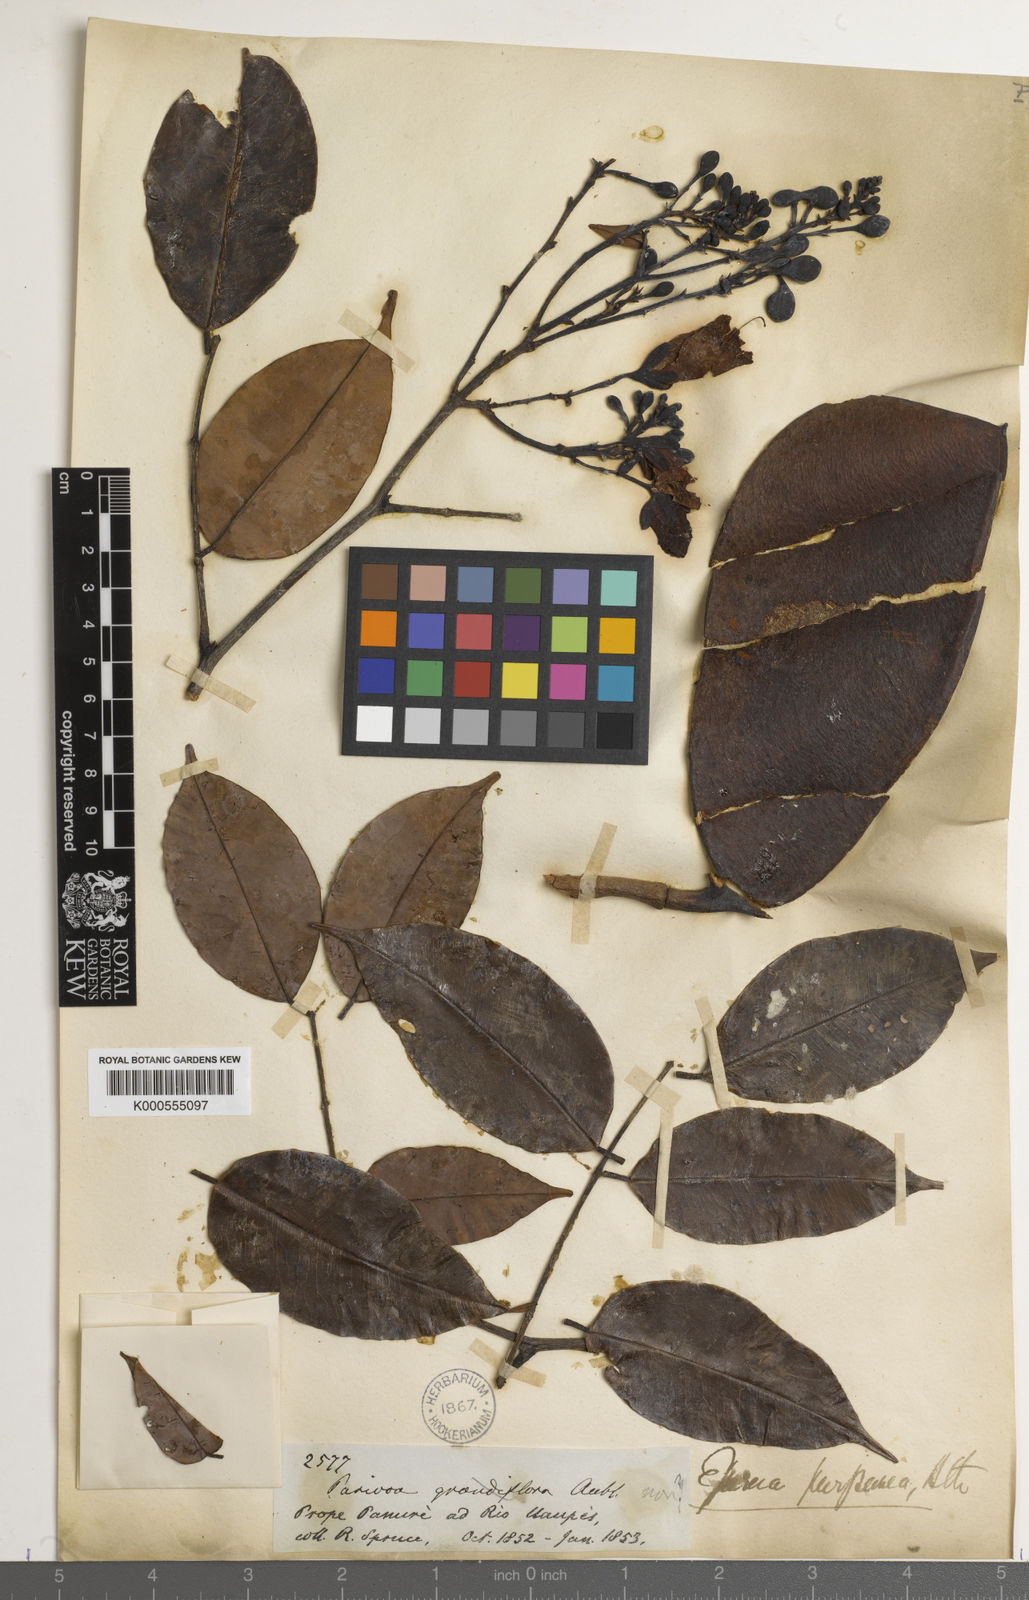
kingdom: Plantae
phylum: Tracheophyta
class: Magnoliopsida
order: Fabales
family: Fabaceae
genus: Eperua
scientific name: Eperua purpurea
